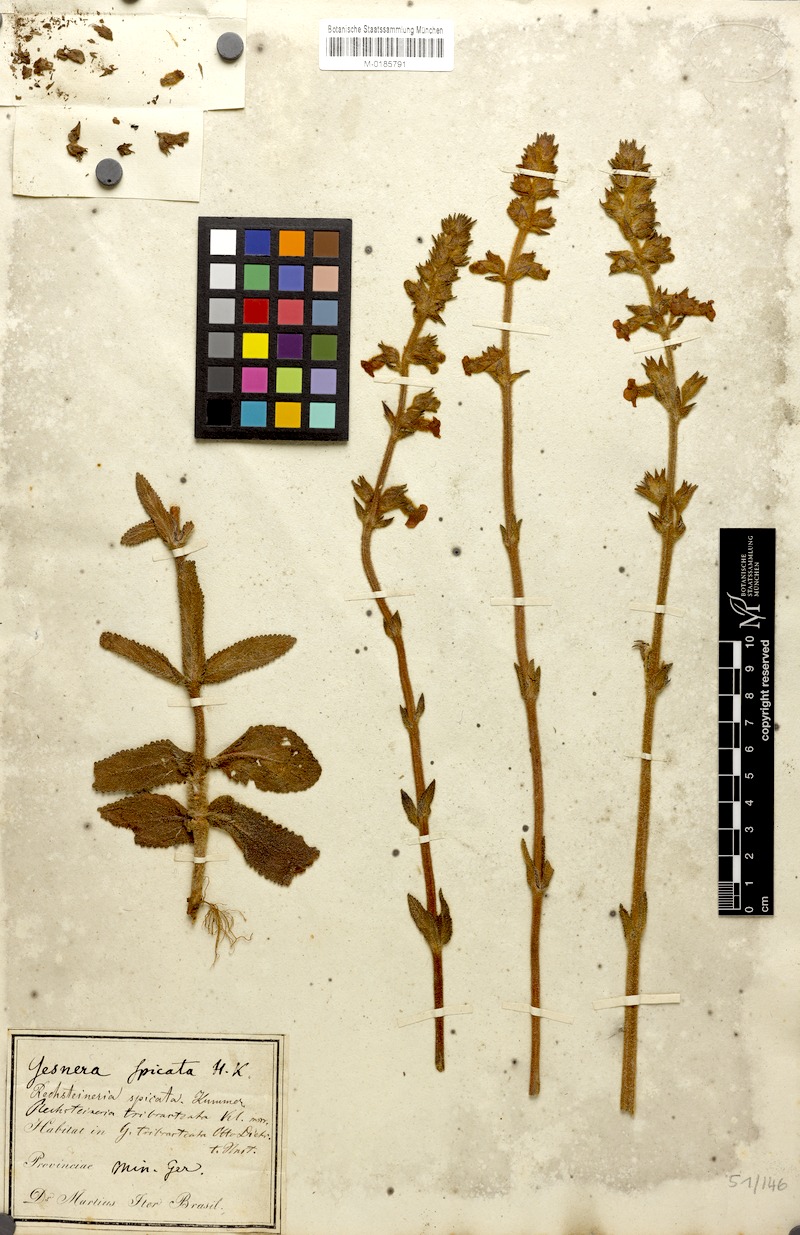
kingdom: Plantae
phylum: Tracheophyta
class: Magnoliopsida
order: Lamiales
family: Gesneriaceae
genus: Sinningia
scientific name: Sinningia allagophylla
